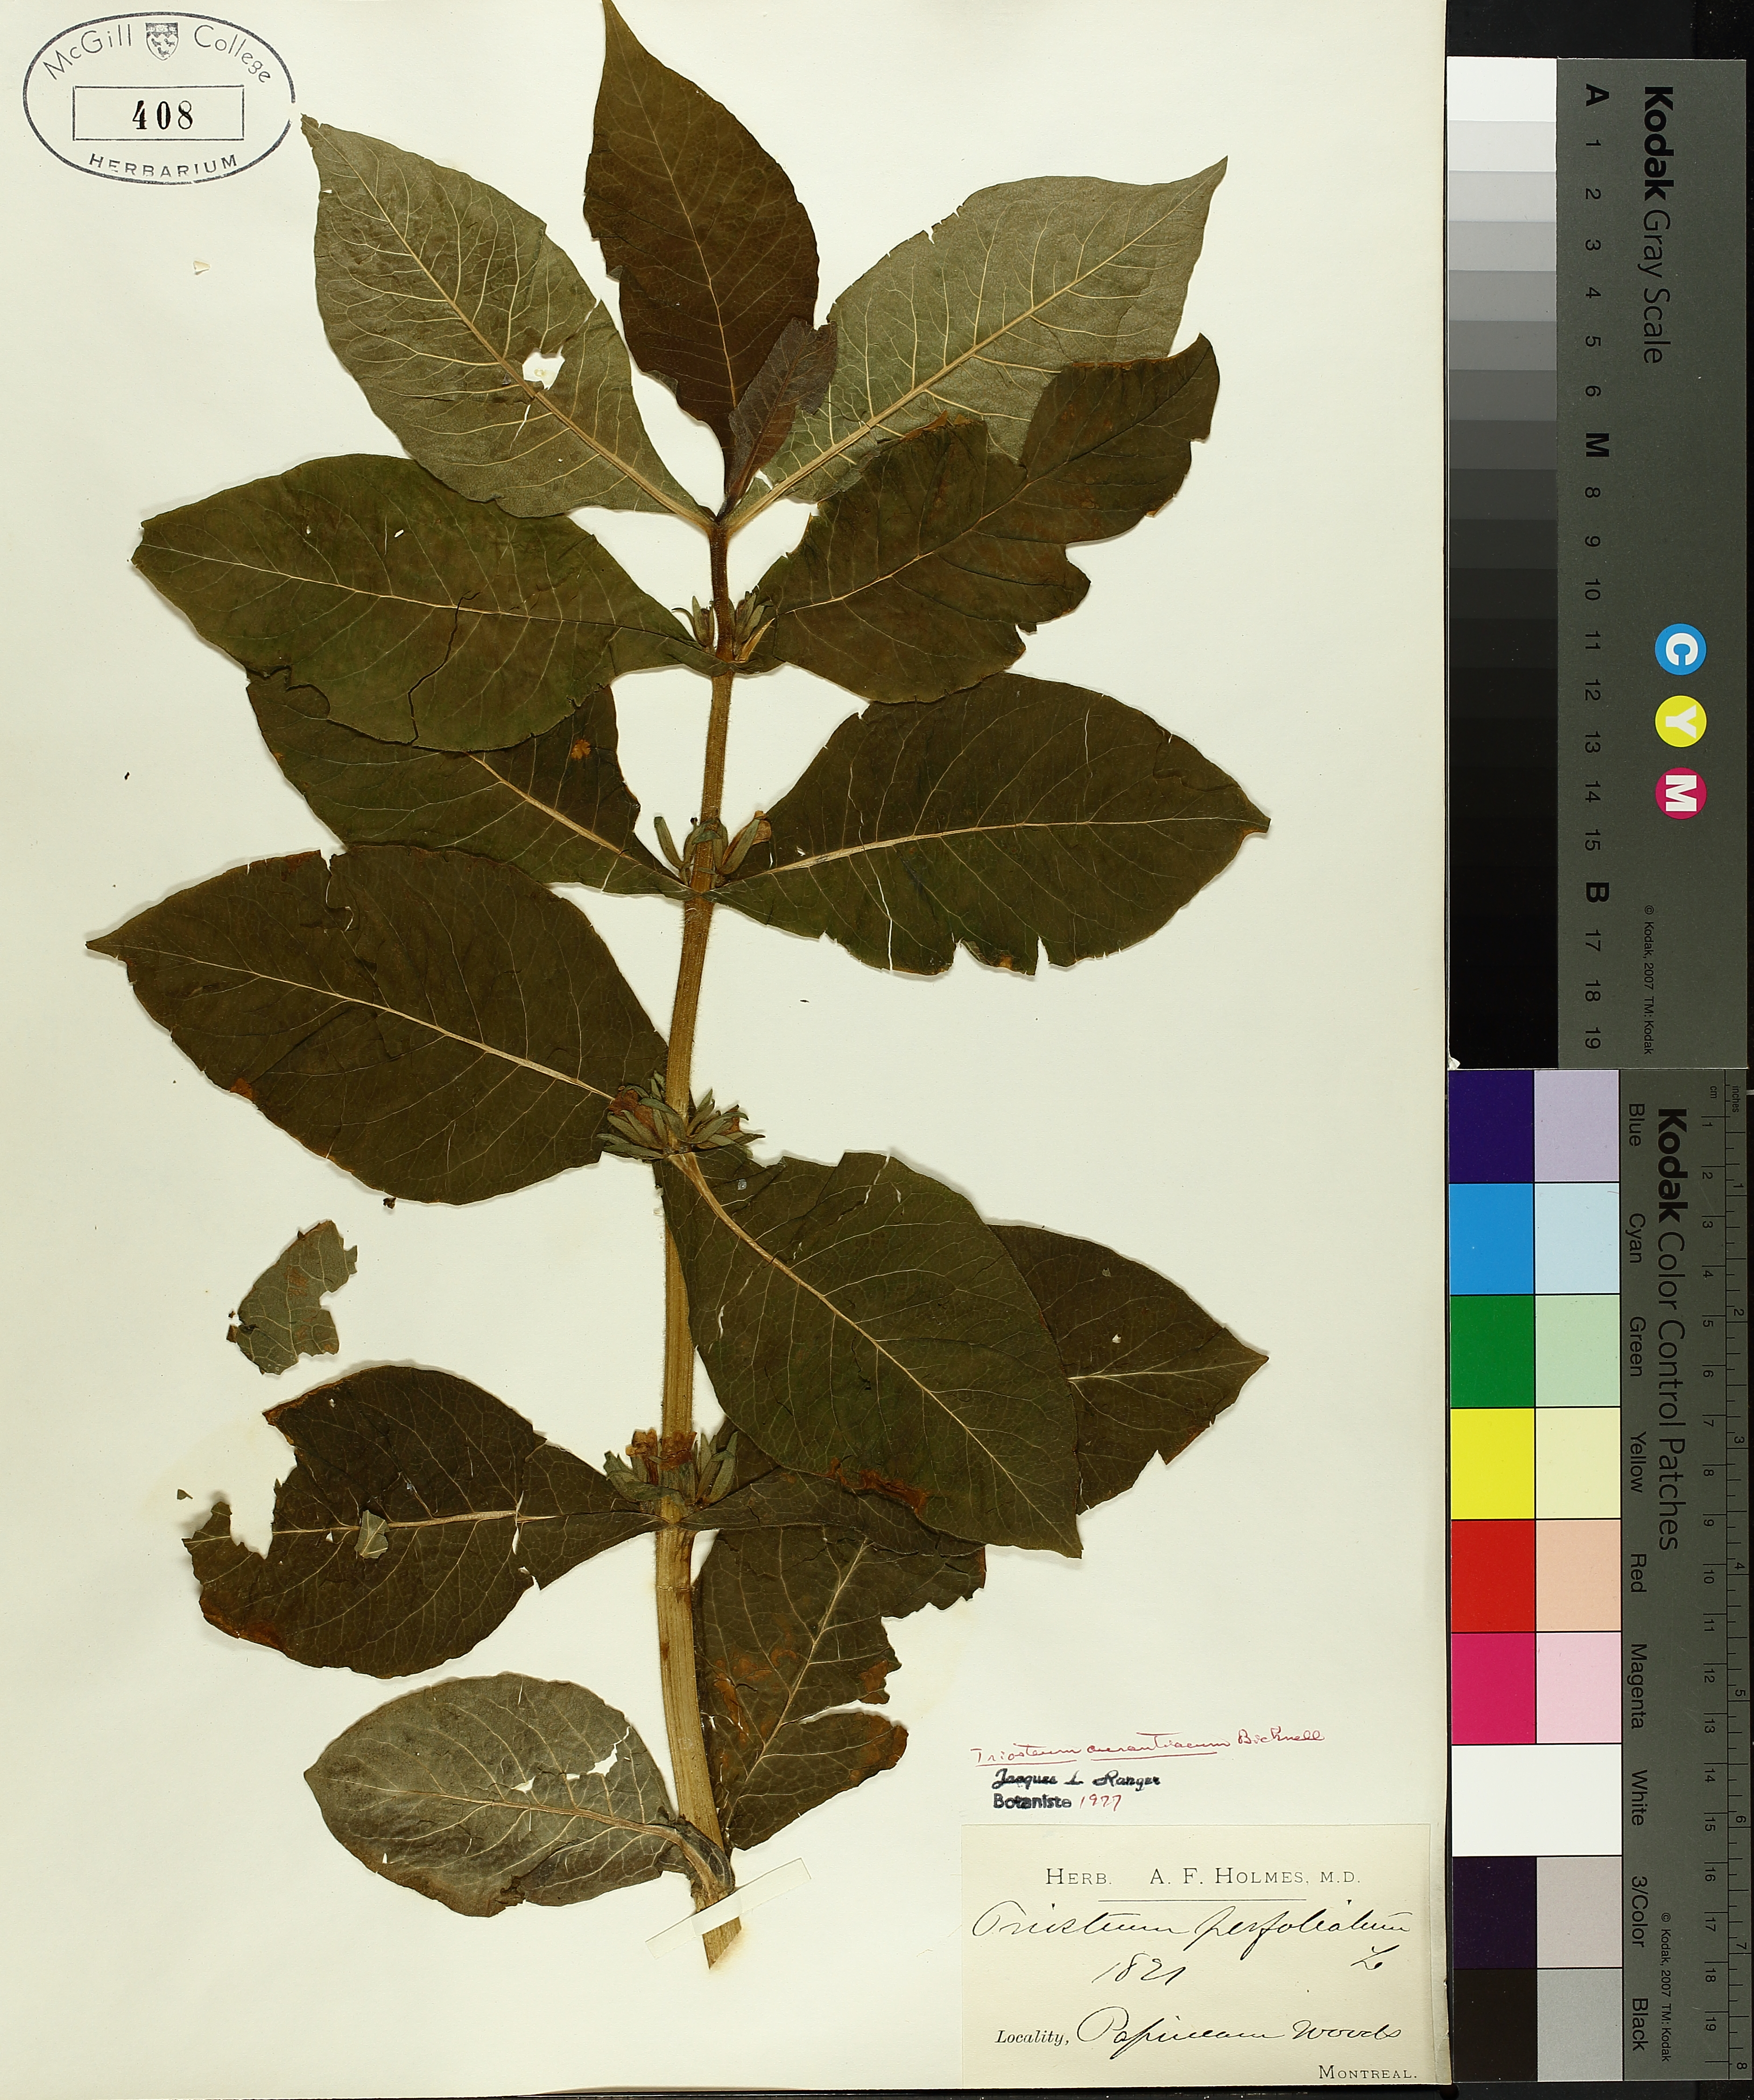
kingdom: Plantae
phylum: Tracheophyta
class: Magnoliopsida
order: Dipsacales
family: Caprifoliaceae
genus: Triosteum
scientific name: Triosteum aurantiacum
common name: Coffee tinker's-weed
